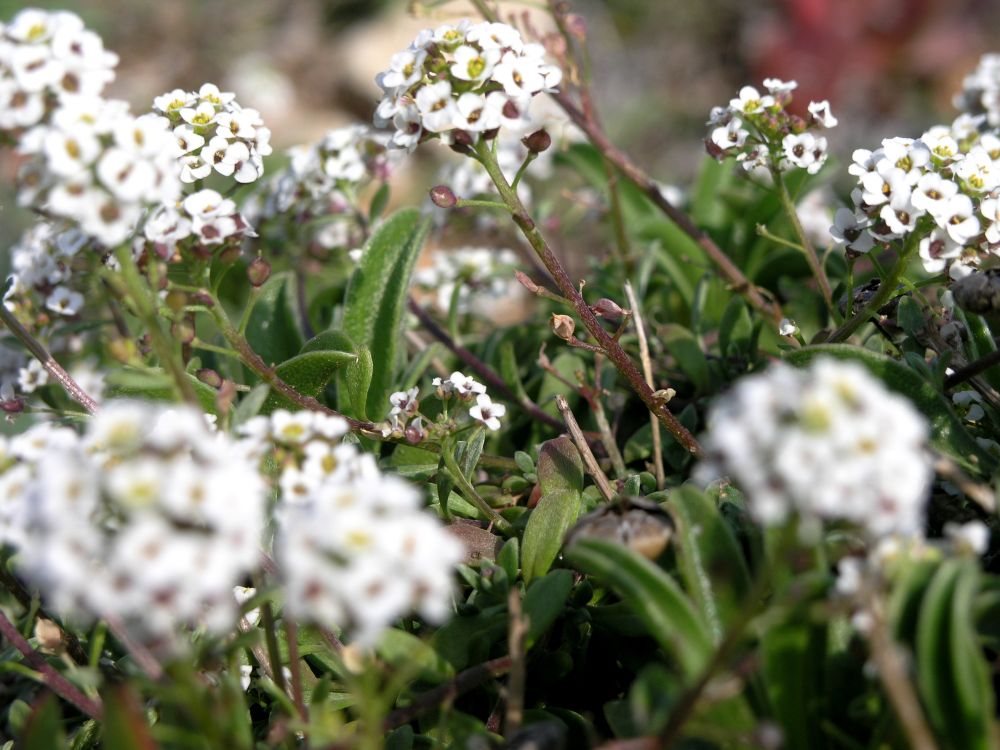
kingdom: Plantae
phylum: Tracheophyta
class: Magnoliopsida
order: Brassicales
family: Brassicaceae
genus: Lobularia
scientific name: Lobularia maritima
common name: Sweet alison
